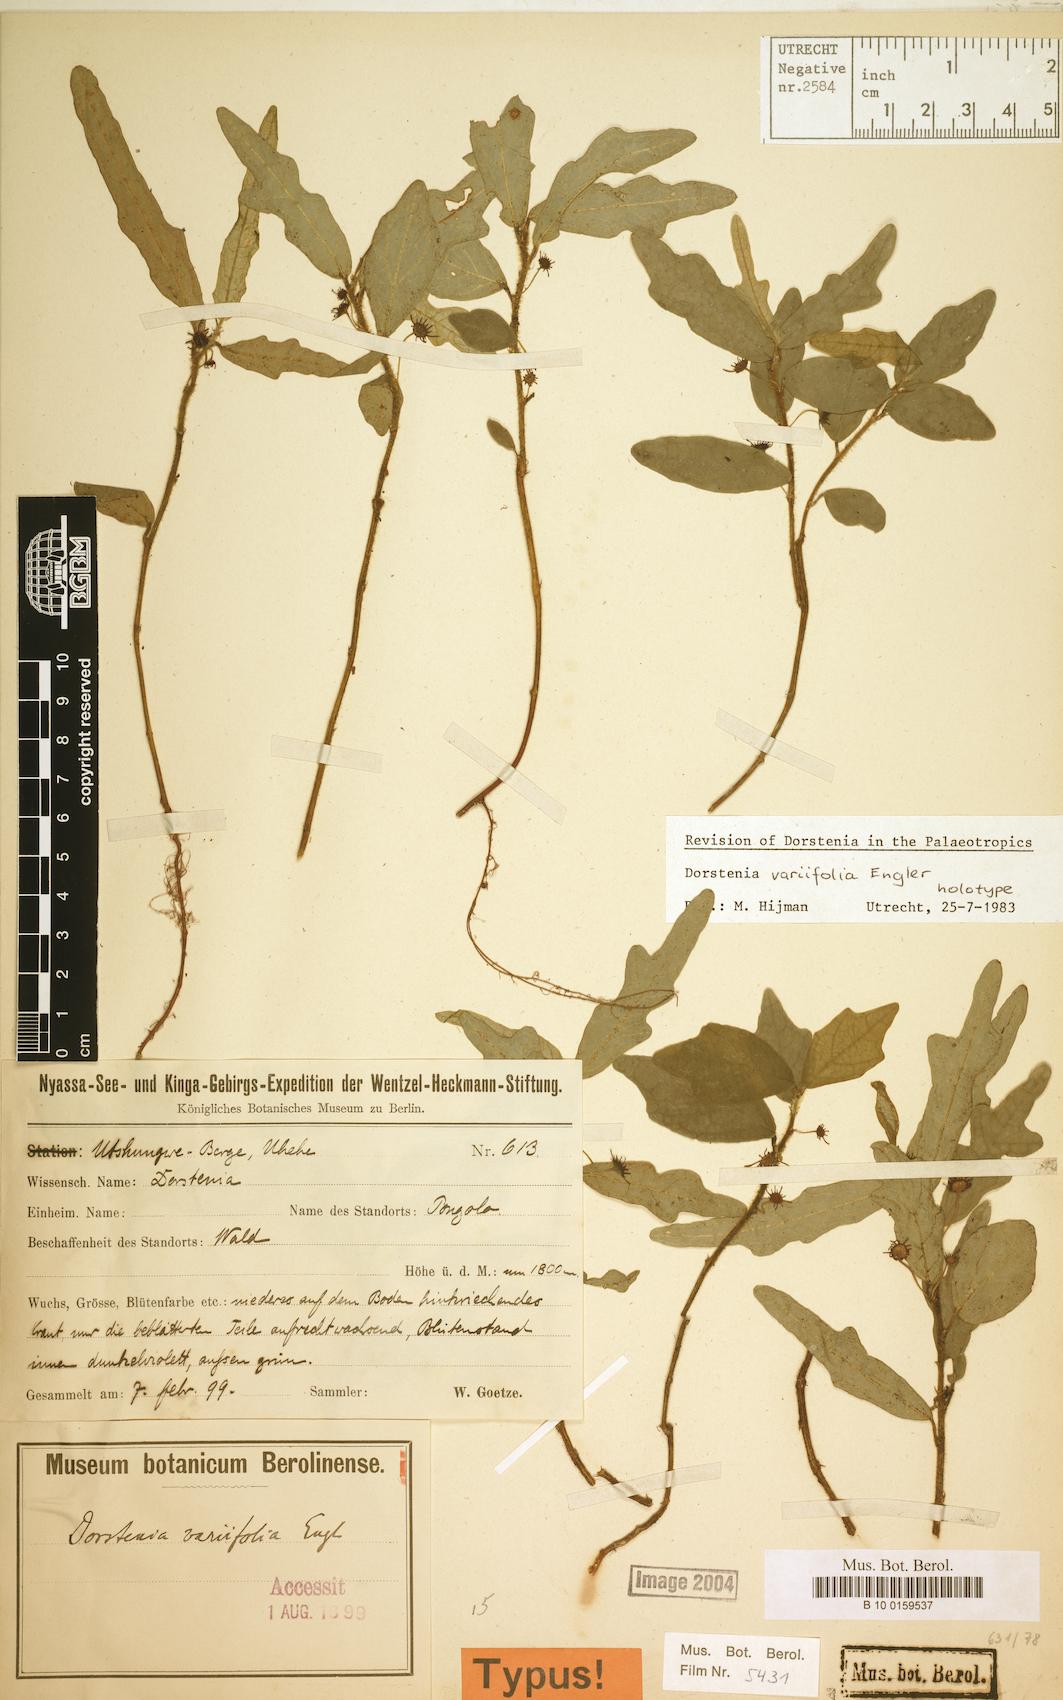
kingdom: Plantae
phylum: Tracheophyta
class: Magnoliopsida
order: Rosales
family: Moraceae
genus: Dorstenia
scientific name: Dorstenia variifolia
